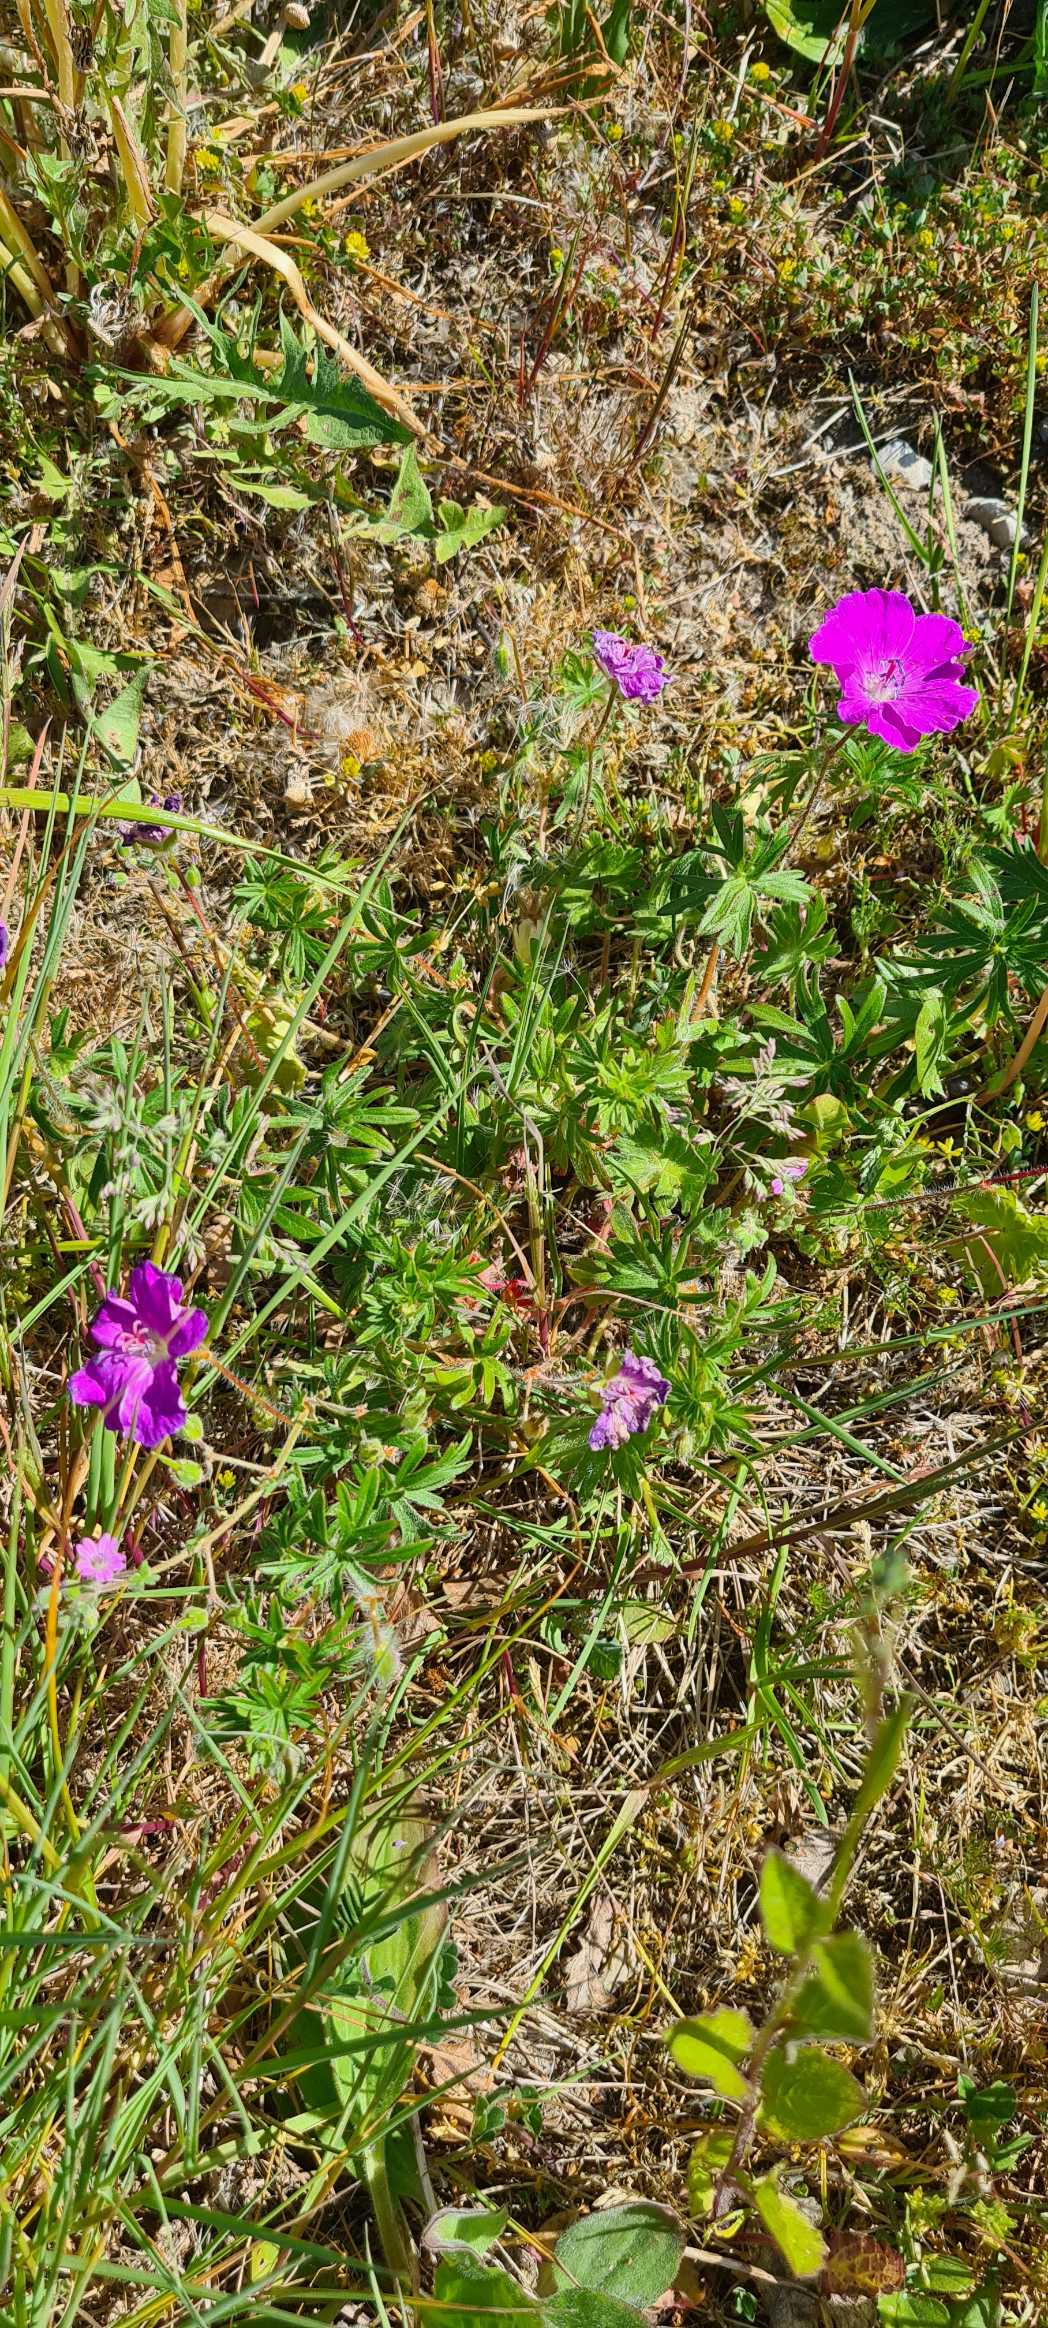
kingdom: Plantae
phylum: Tracheophyta
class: Magnoliopsida
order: Geraniales
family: Geraniaceae
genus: Geranium
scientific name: Geranium sanguineum
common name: Blodrød storkenæb
